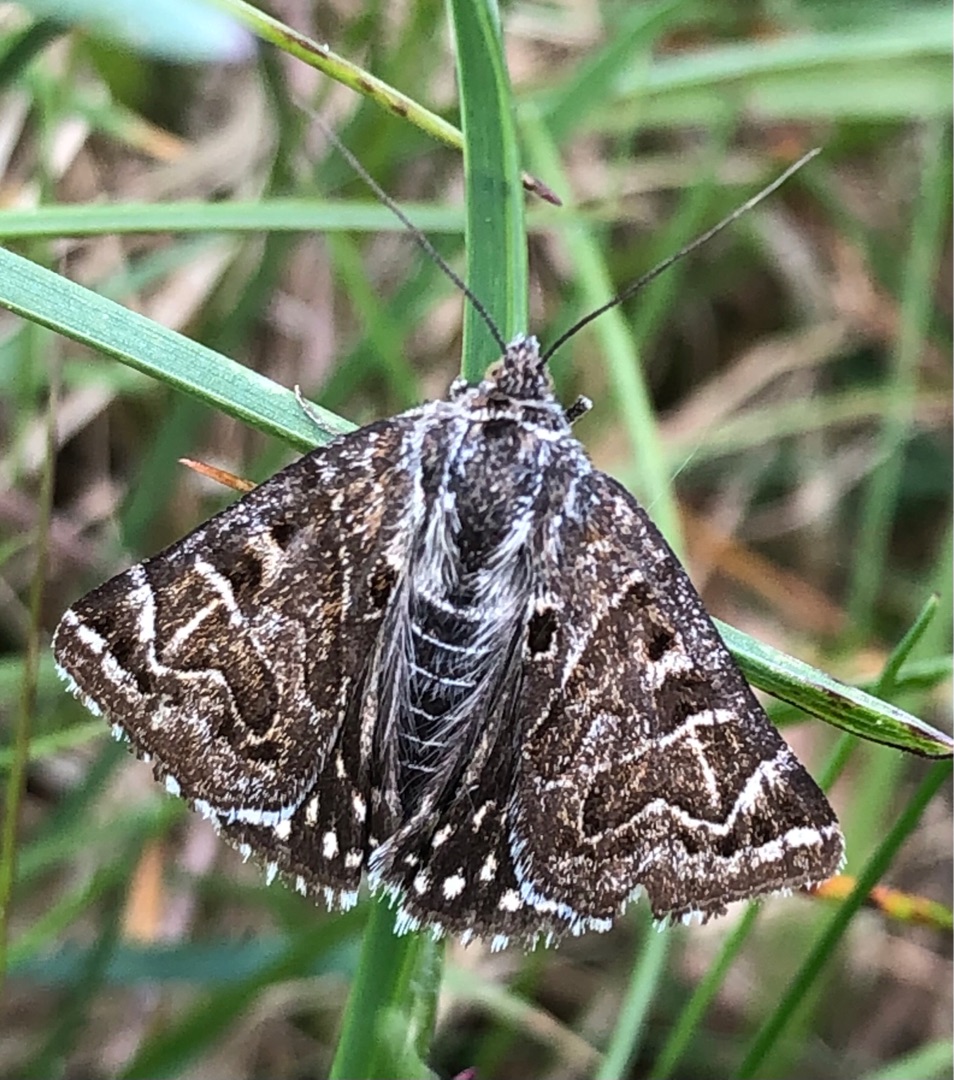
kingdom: Animalia
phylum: Arthropoda
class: Insecta
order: Lepidoptera
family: Erebidae
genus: Callistege
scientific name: Callistege mi
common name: Marmoreret kløverugle
